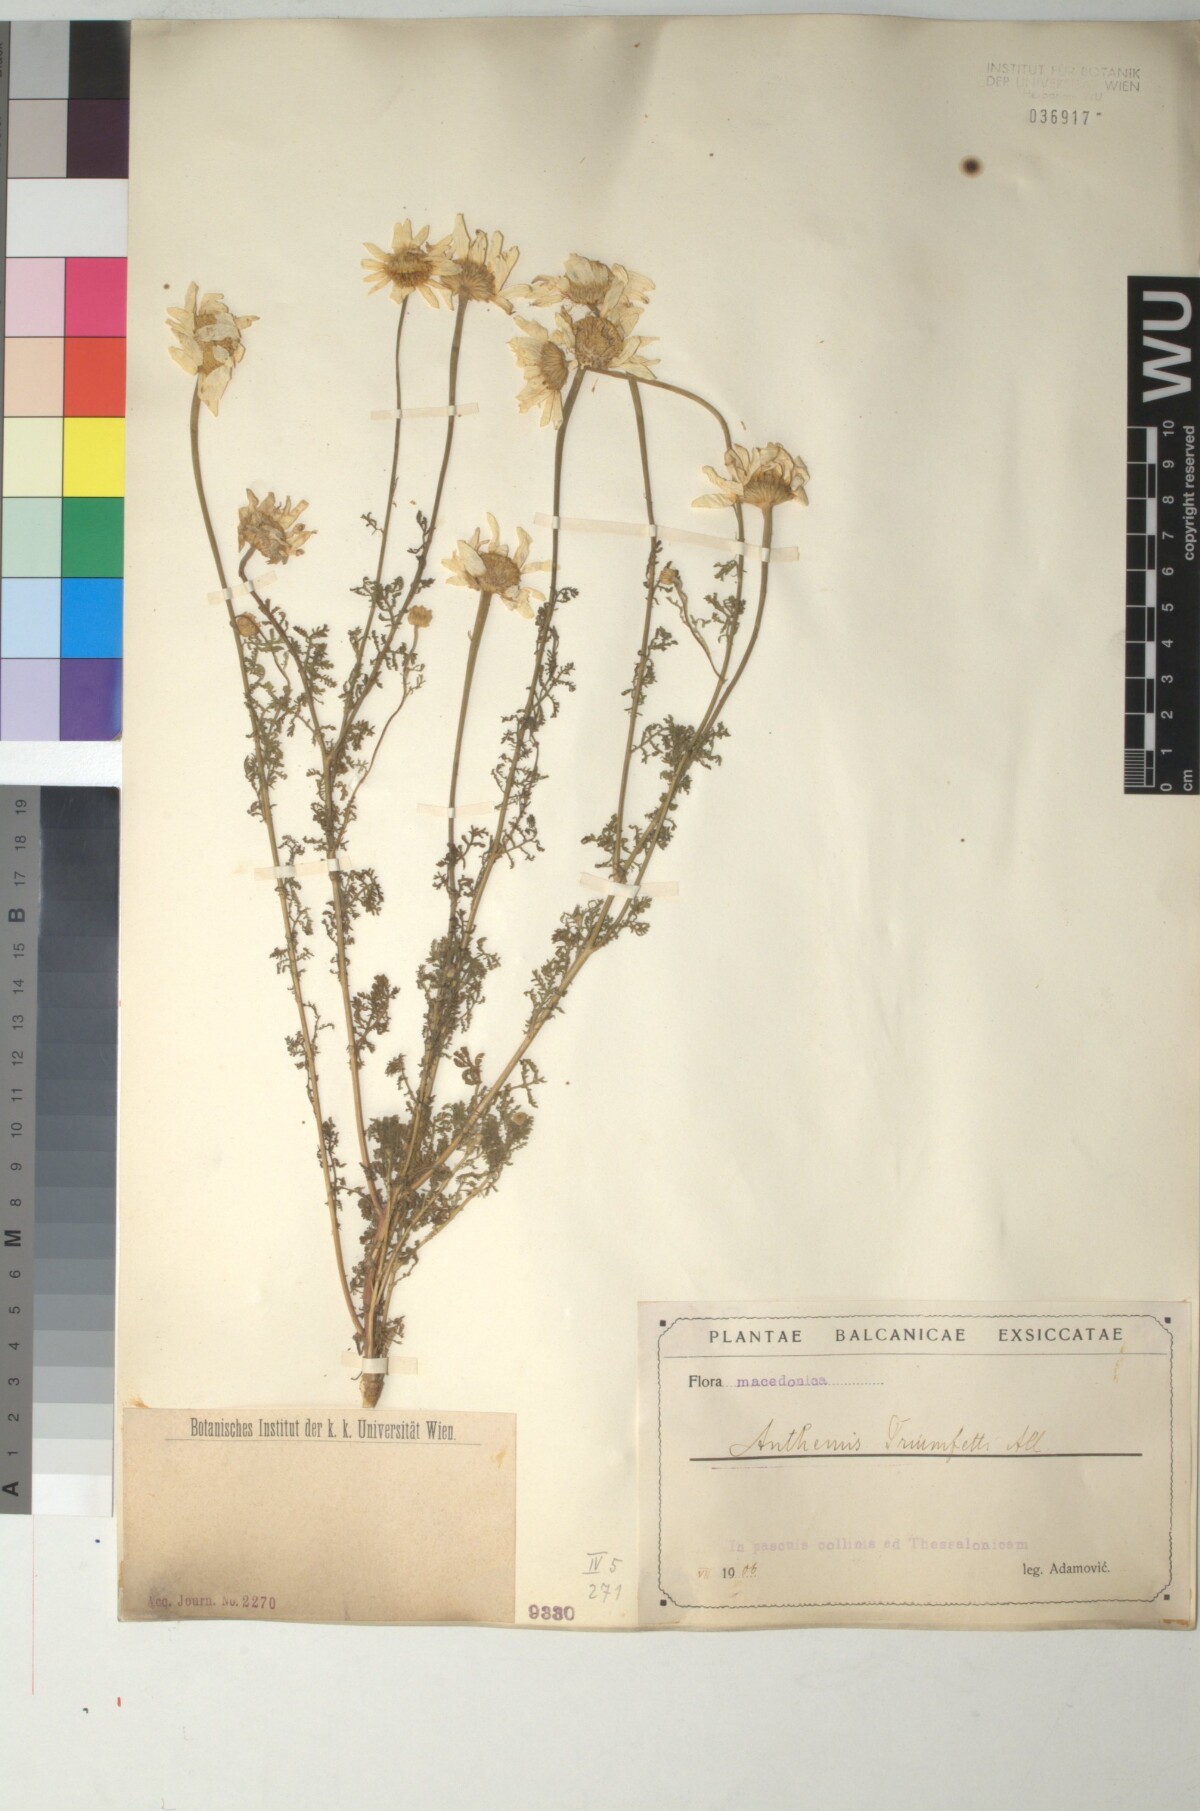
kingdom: Plantae
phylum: Tracheophyta
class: Magnoliopsida
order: Asterales
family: Asteraceae
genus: Cota
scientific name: Cota triumfetti
